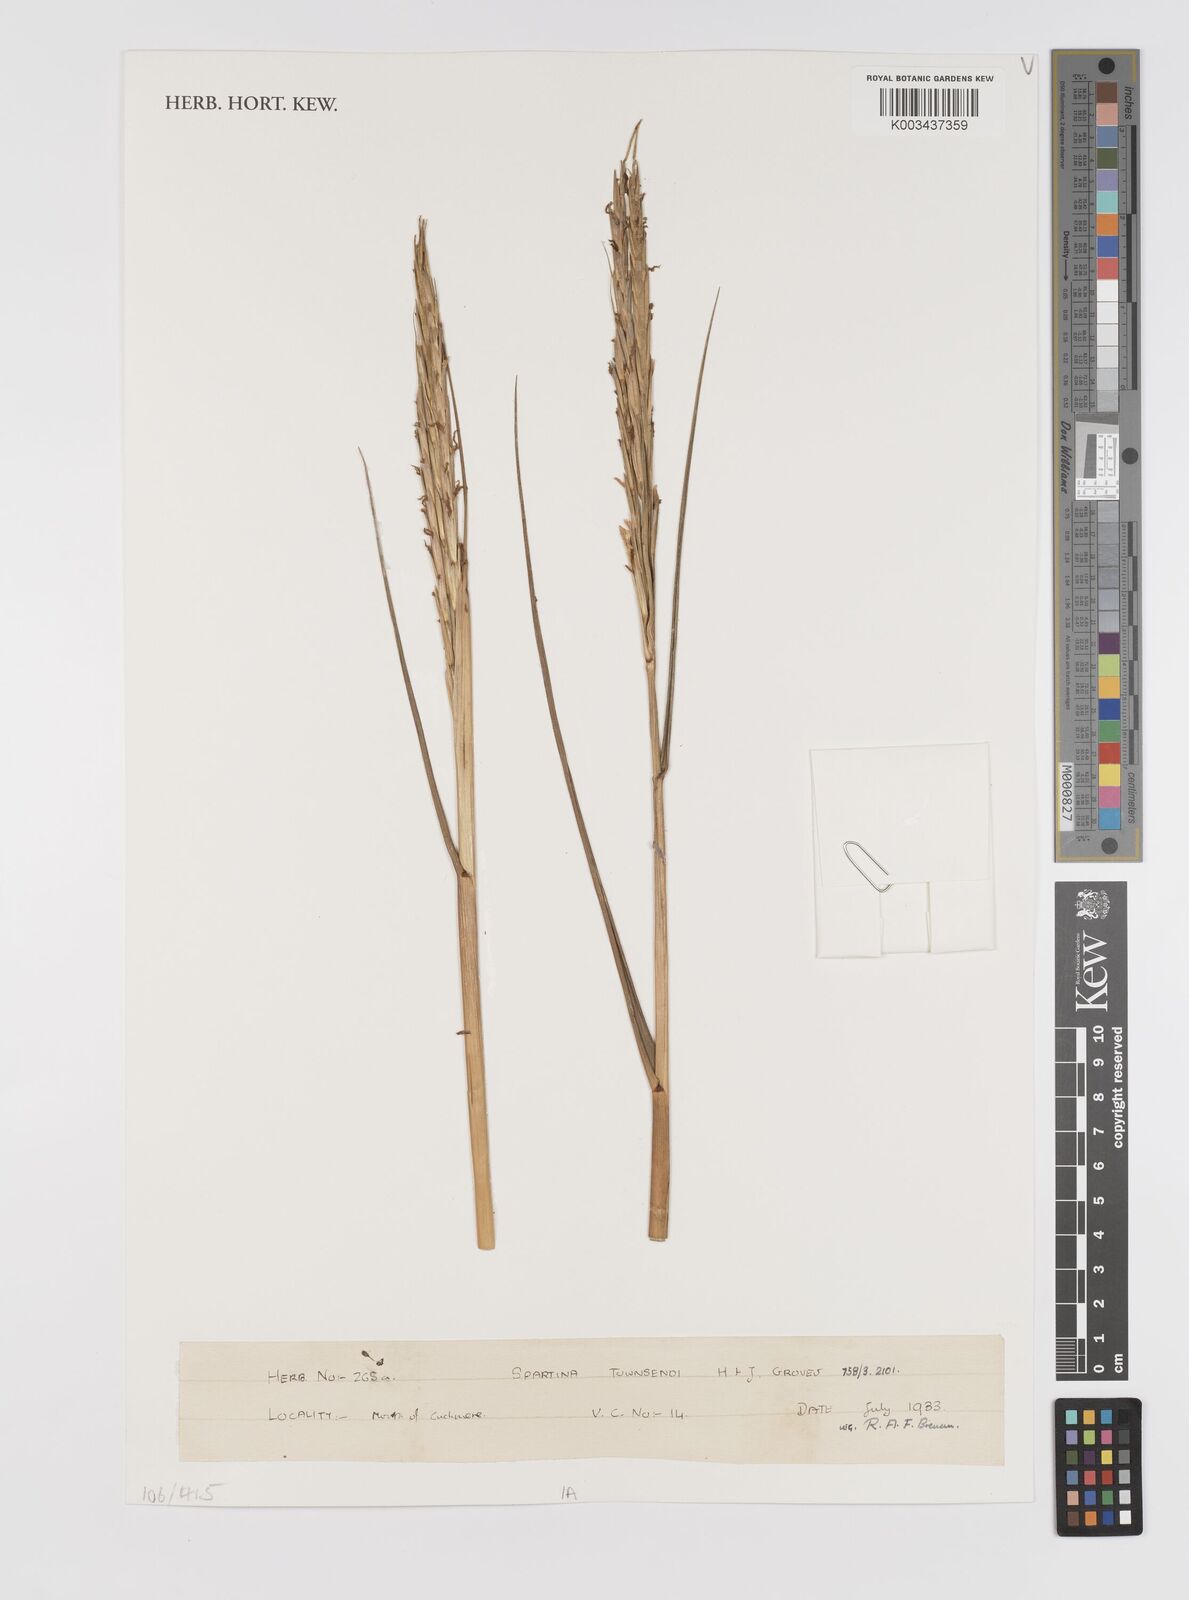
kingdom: Plantae
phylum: Tracheophyta
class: Liliopsida
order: Poales
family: Poaceae
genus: Sporobolus
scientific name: Sporobolus townsendii
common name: Townsend's cordgrass
